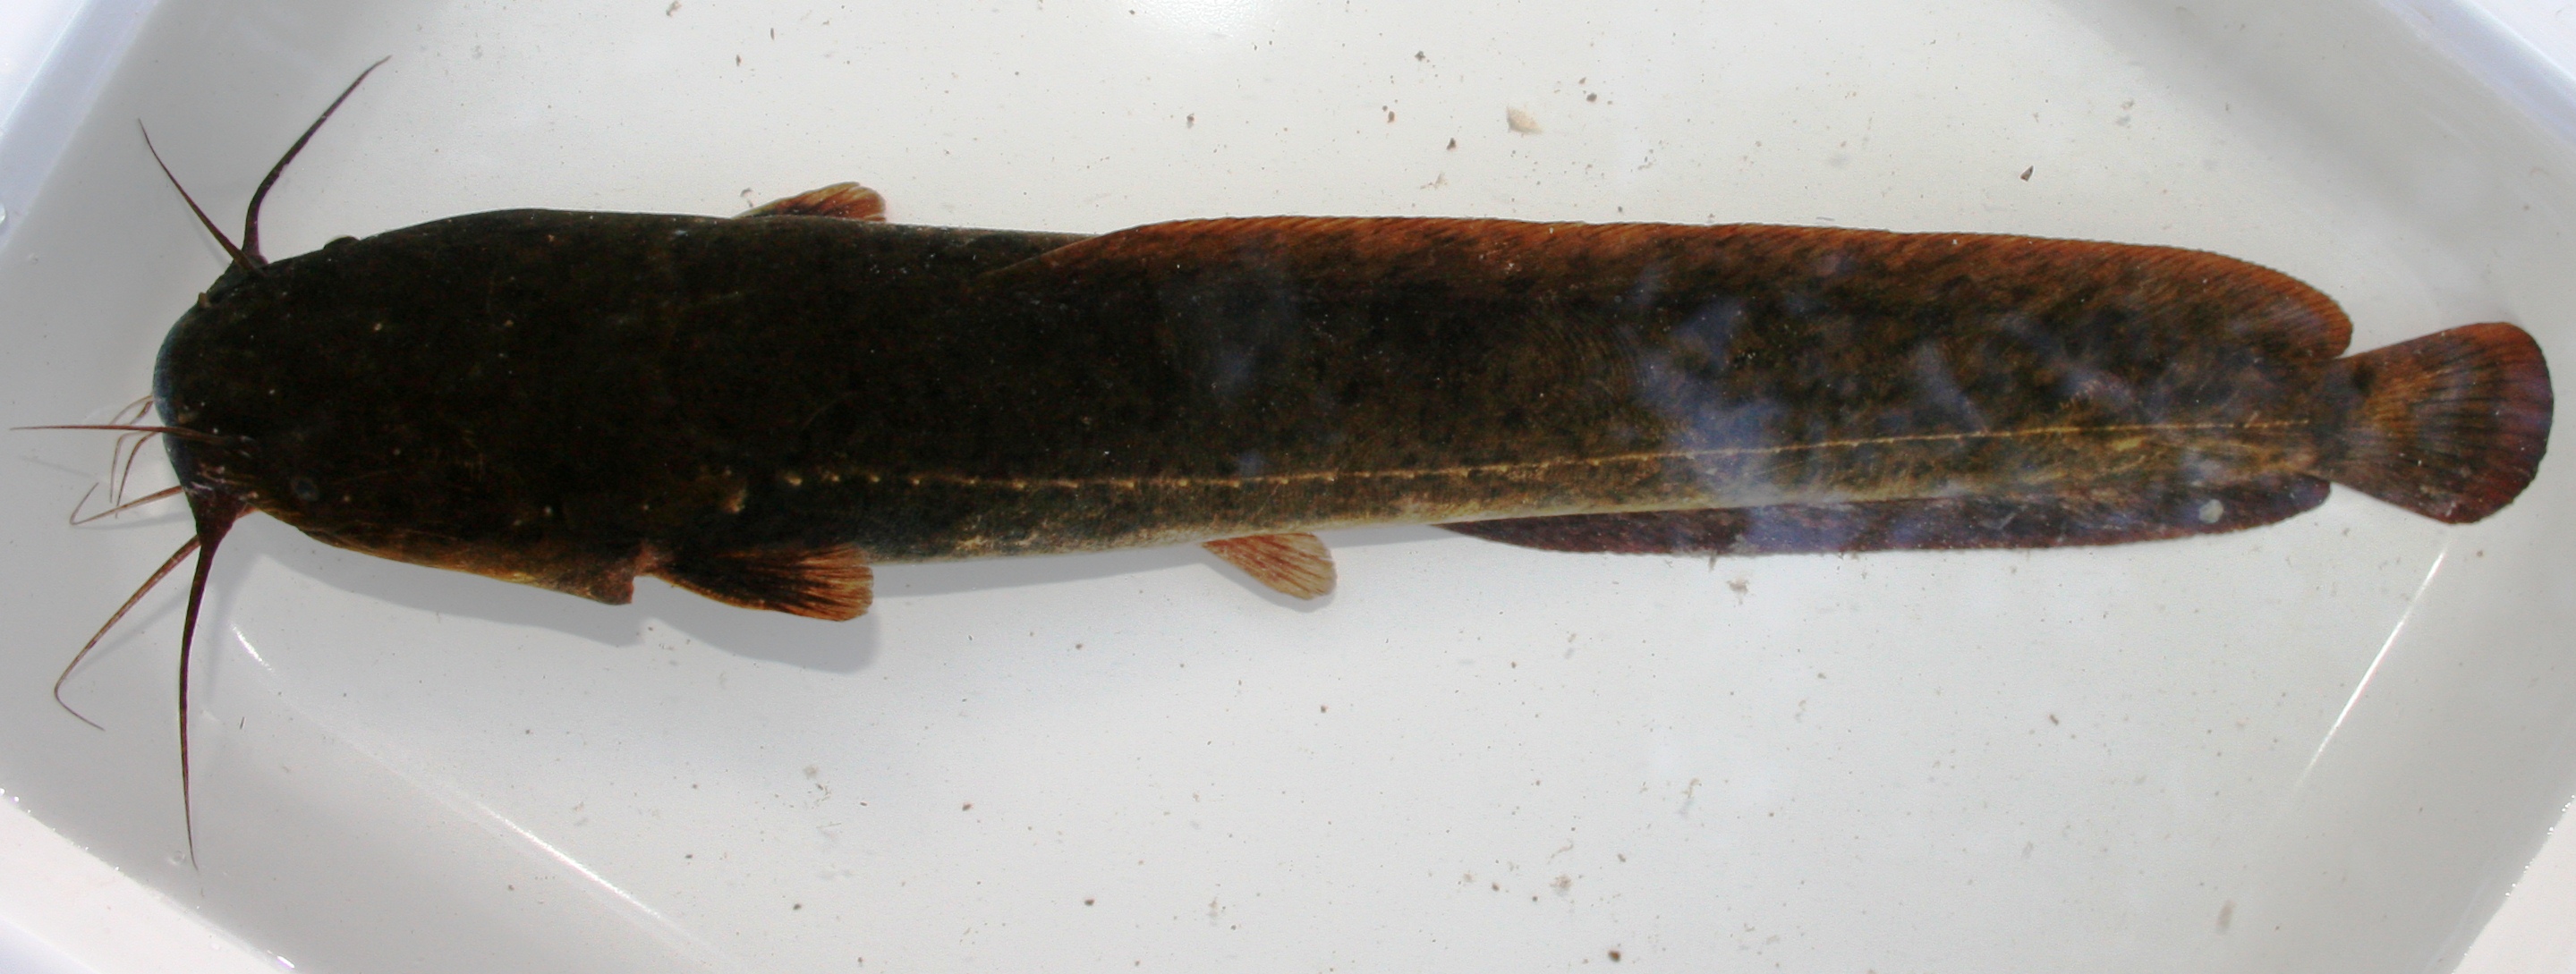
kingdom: Animalia
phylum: Chordata
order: Siluriformes
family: Clariidae
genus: Clarias
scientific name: Clarias stappersii
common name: Blotched catfish
